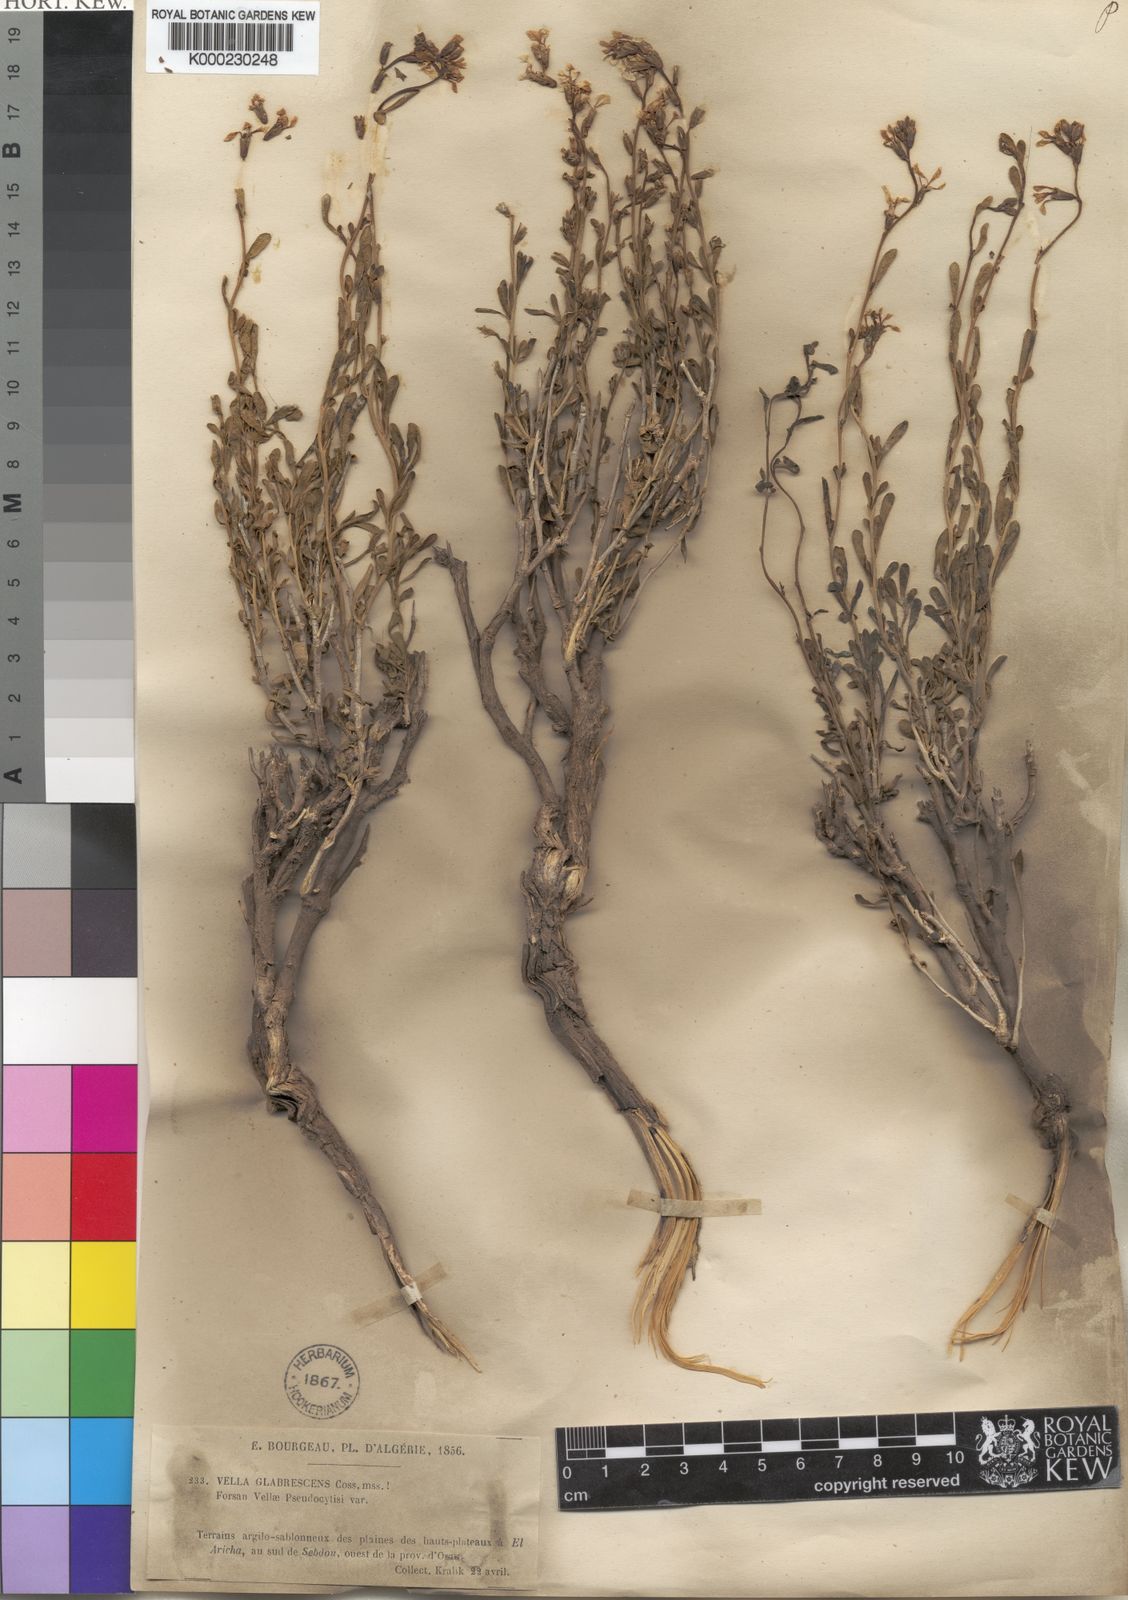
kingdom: Plantae
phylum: Tracheophyta
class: Magnoliopsida
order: Brassicales
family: Brassicaceae
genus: Vella
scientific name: Vella pseudocytisus
